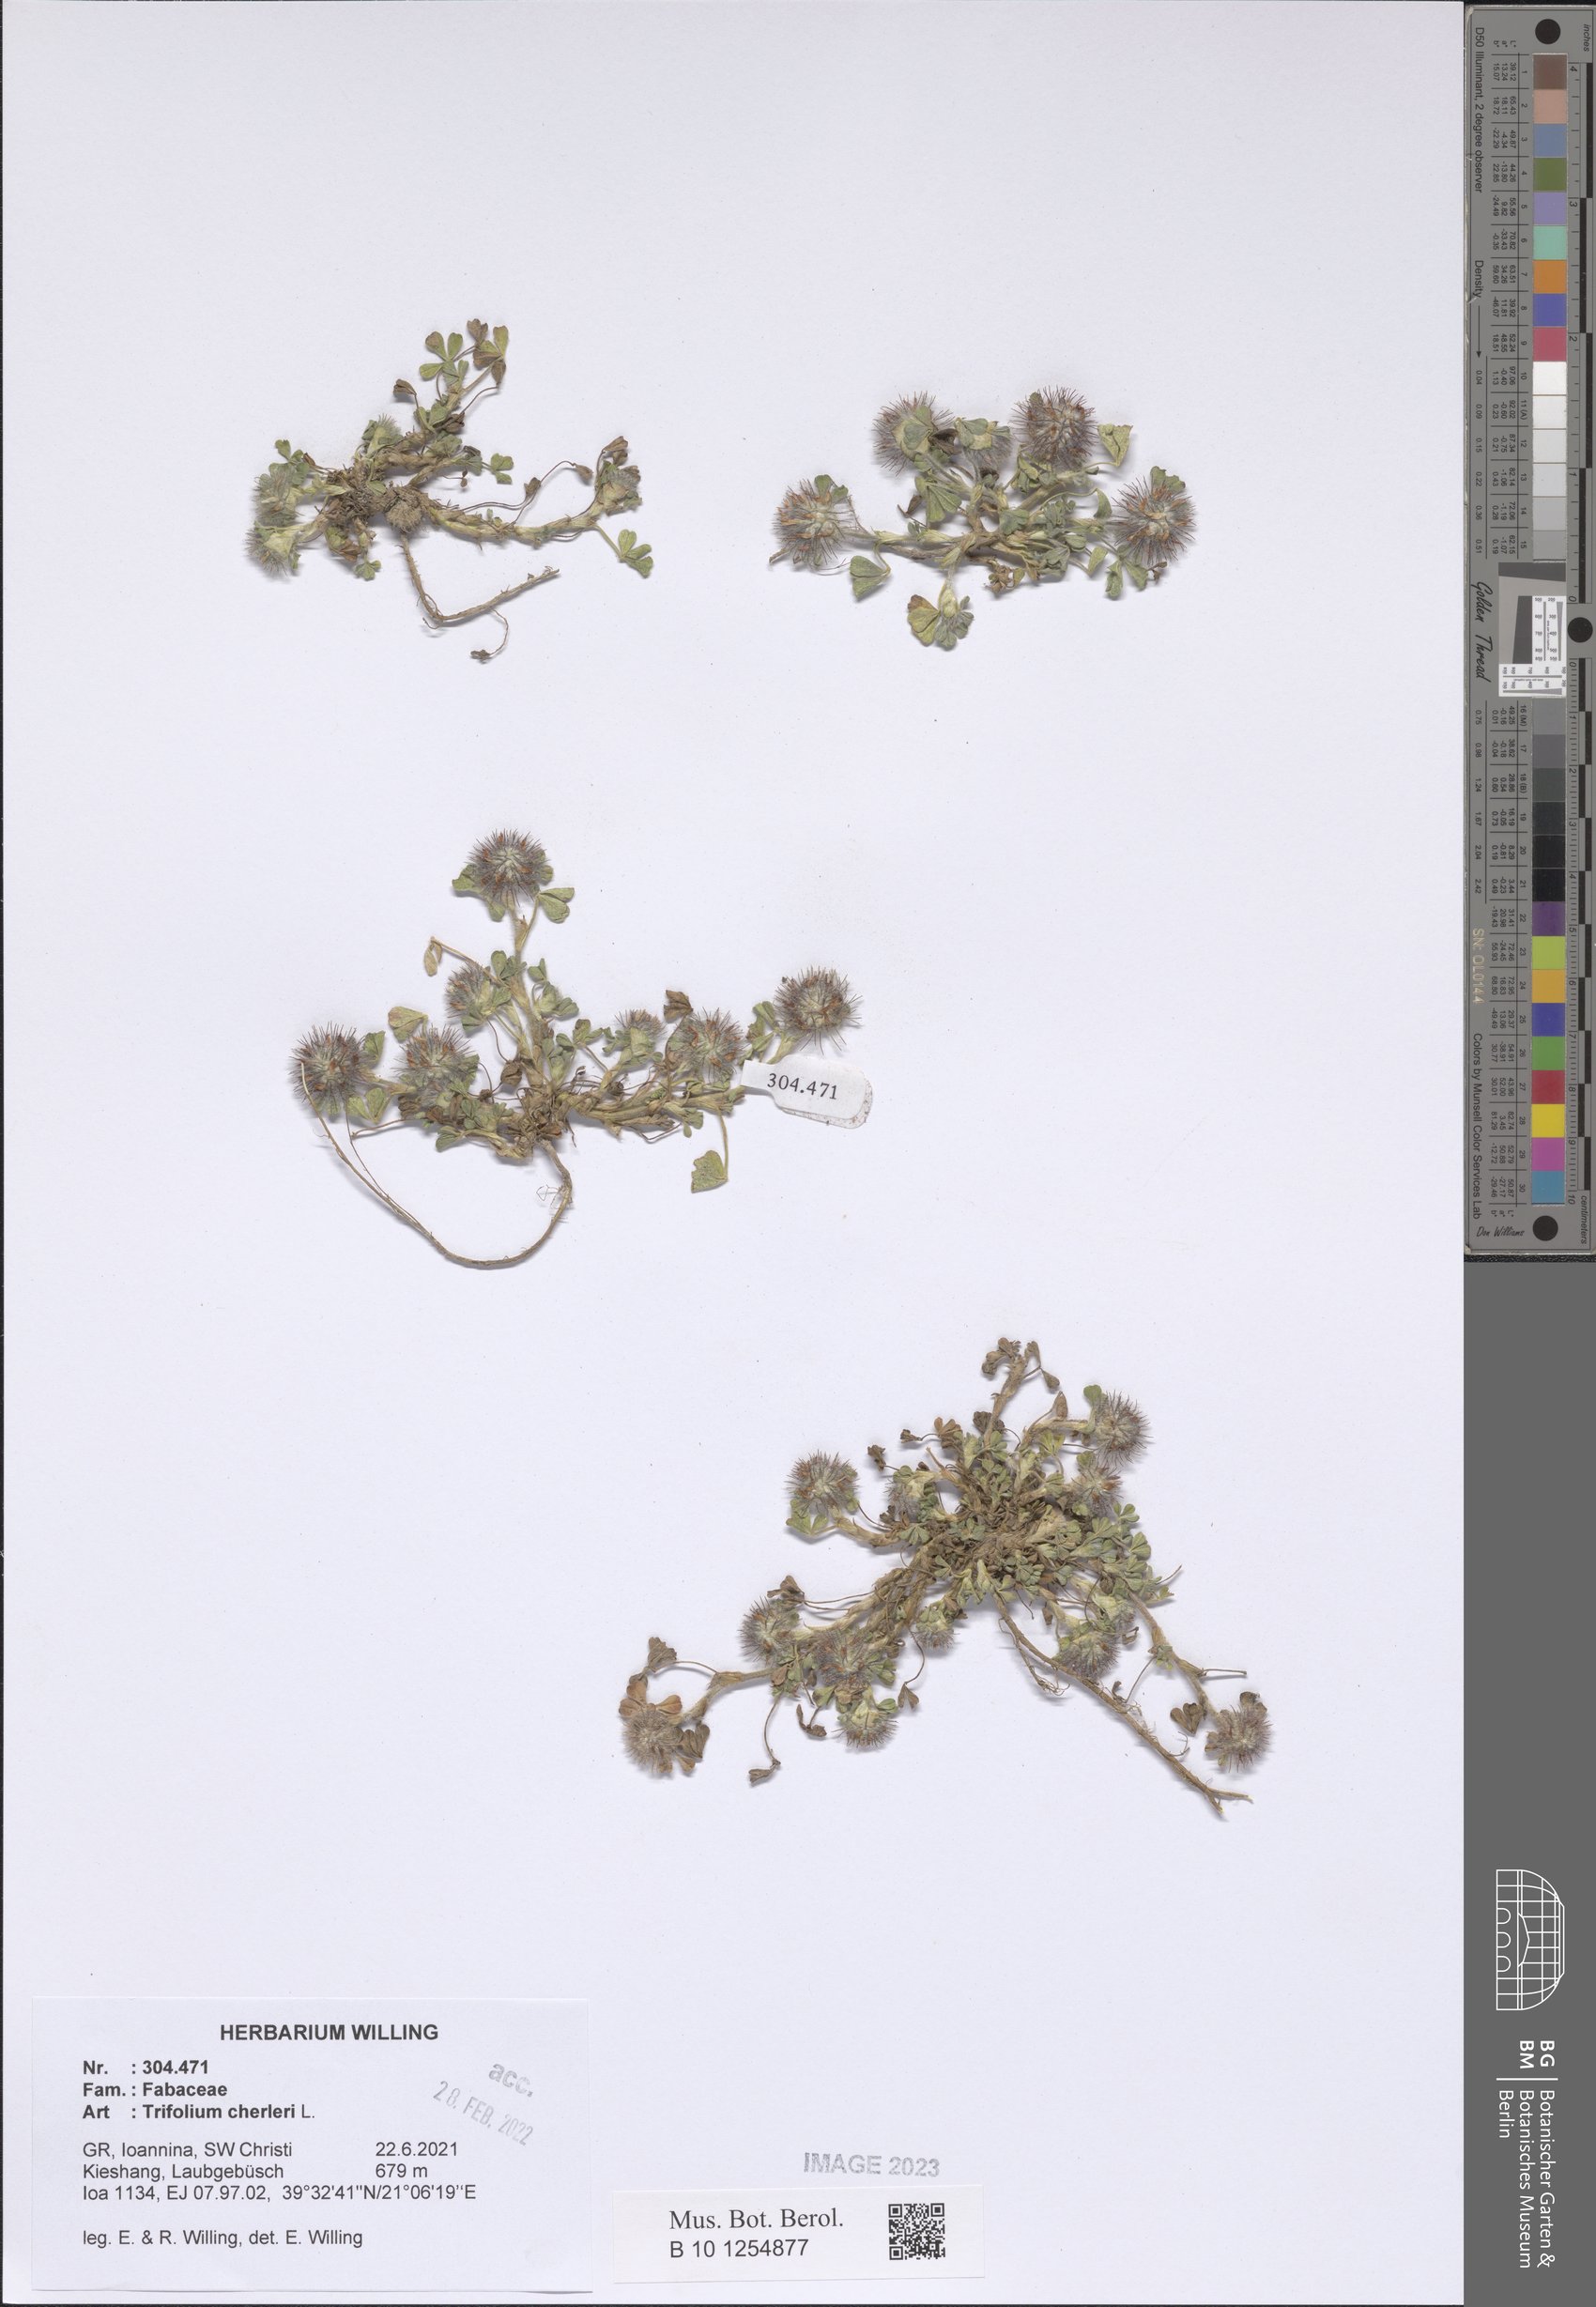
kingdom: Plantae
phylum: Tracheophyta
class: Magnoliopsida
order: Fabales
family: Fabaceae
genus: Trifolium
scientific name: Trifolium cherleri
